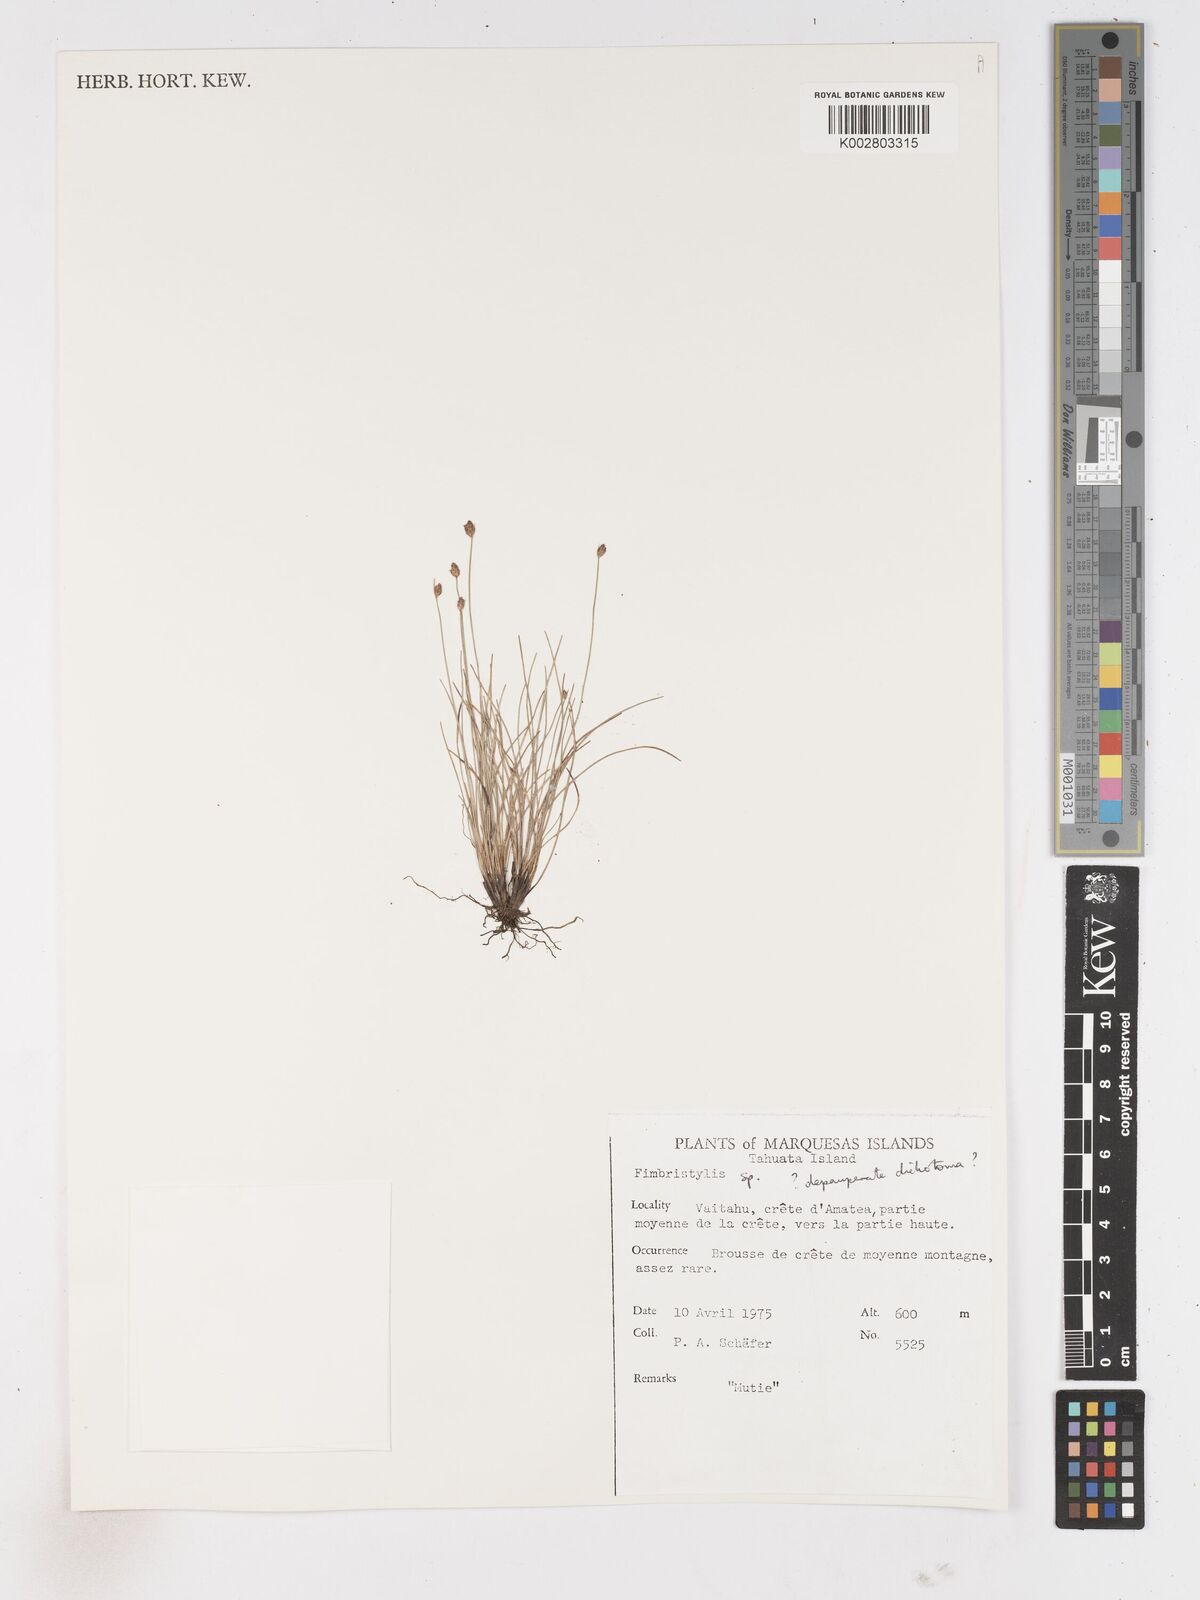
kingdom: Plantae
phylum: Tracheophyta
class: Liliopsida
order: Poales
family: Cyperaceae
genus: Fimbristylis
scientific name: Fimbristylis
